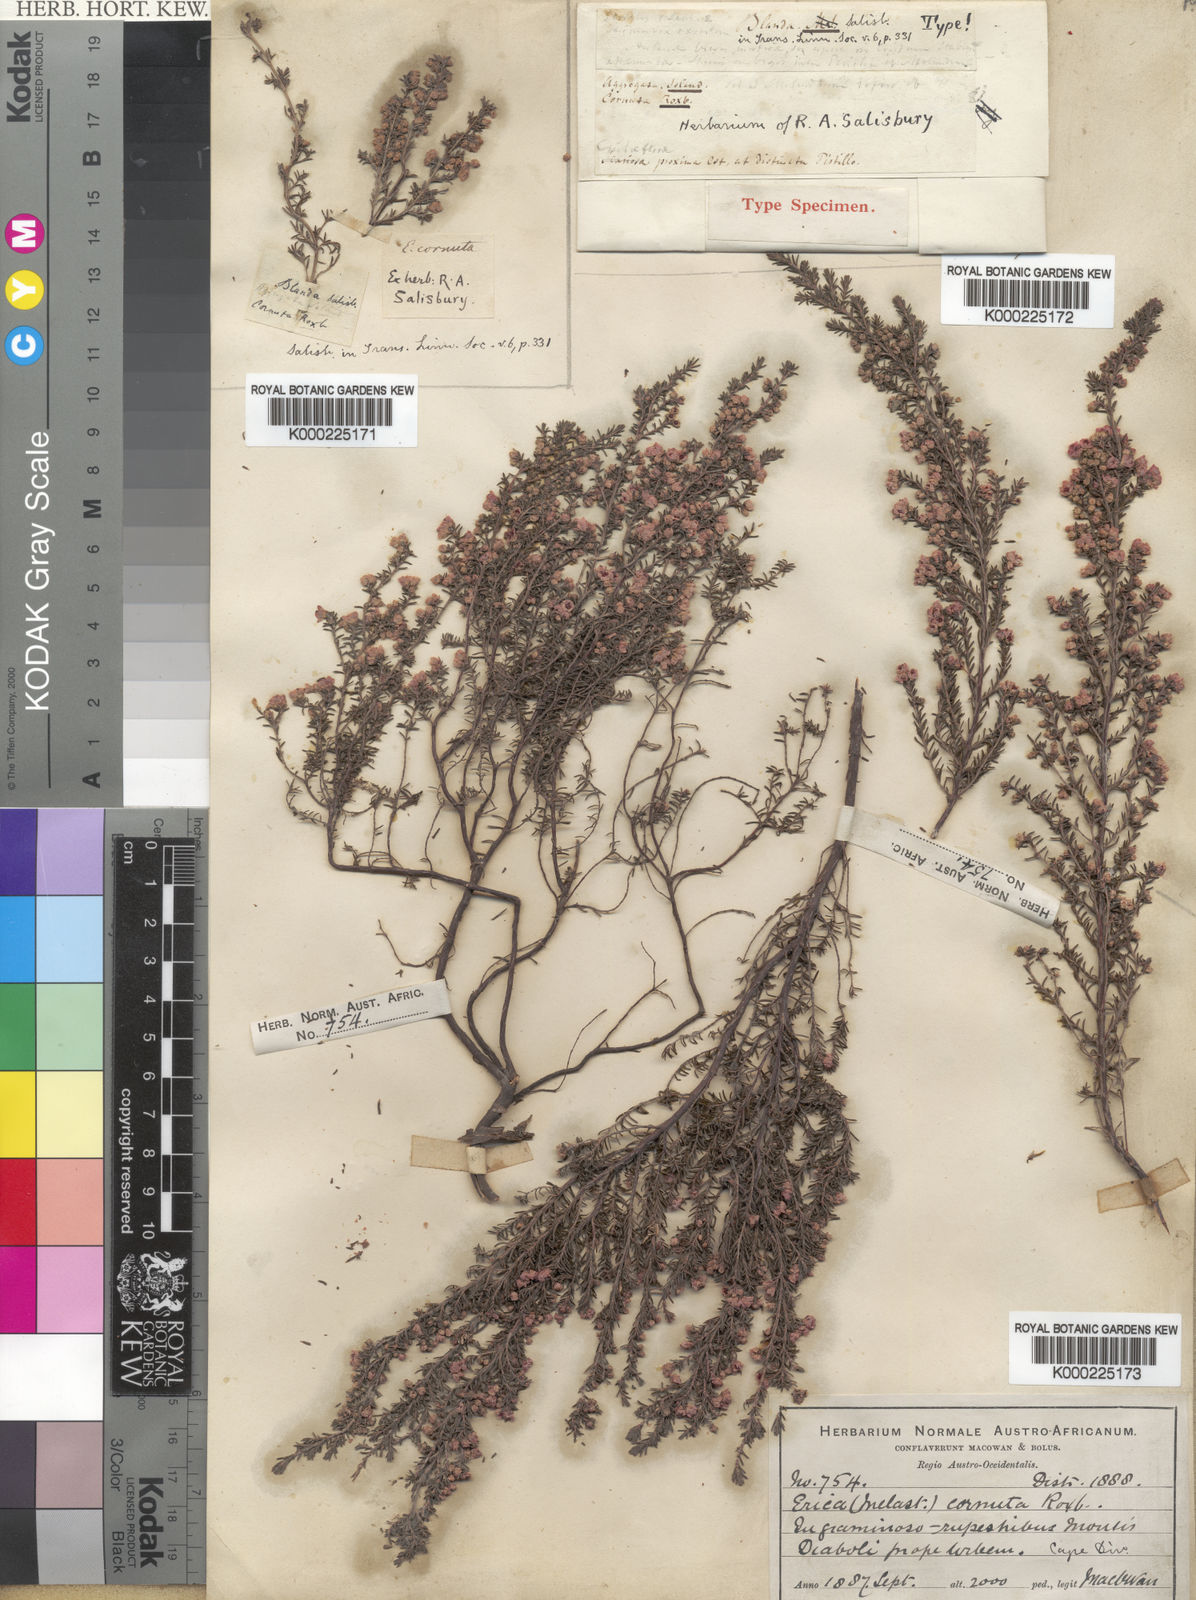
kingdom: Plantae
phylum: Tracheophyta
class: Magnoliopsida
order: Ericales
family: Ericaceae
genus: Erica
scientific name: Erica cristiflora
